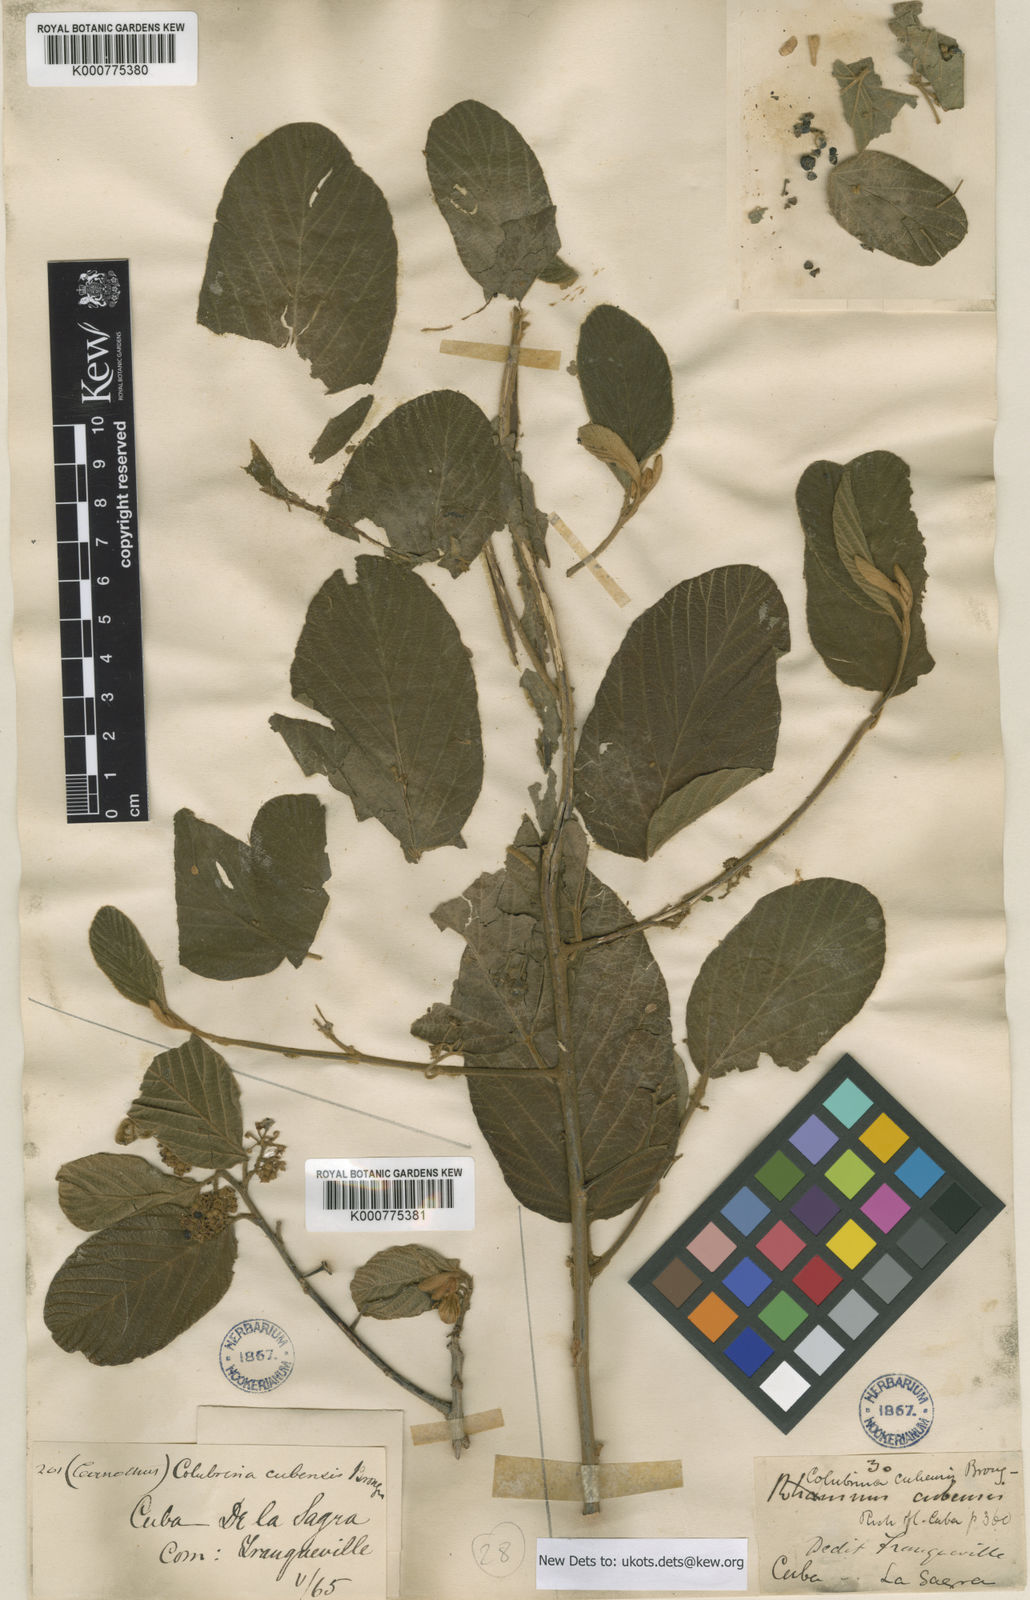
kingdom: Plantae
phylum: Tracheophyta
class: Magnoliopsida
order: Rosales
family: Rhamnaceae
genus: Colubrina
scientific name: Colubrina cubensis
